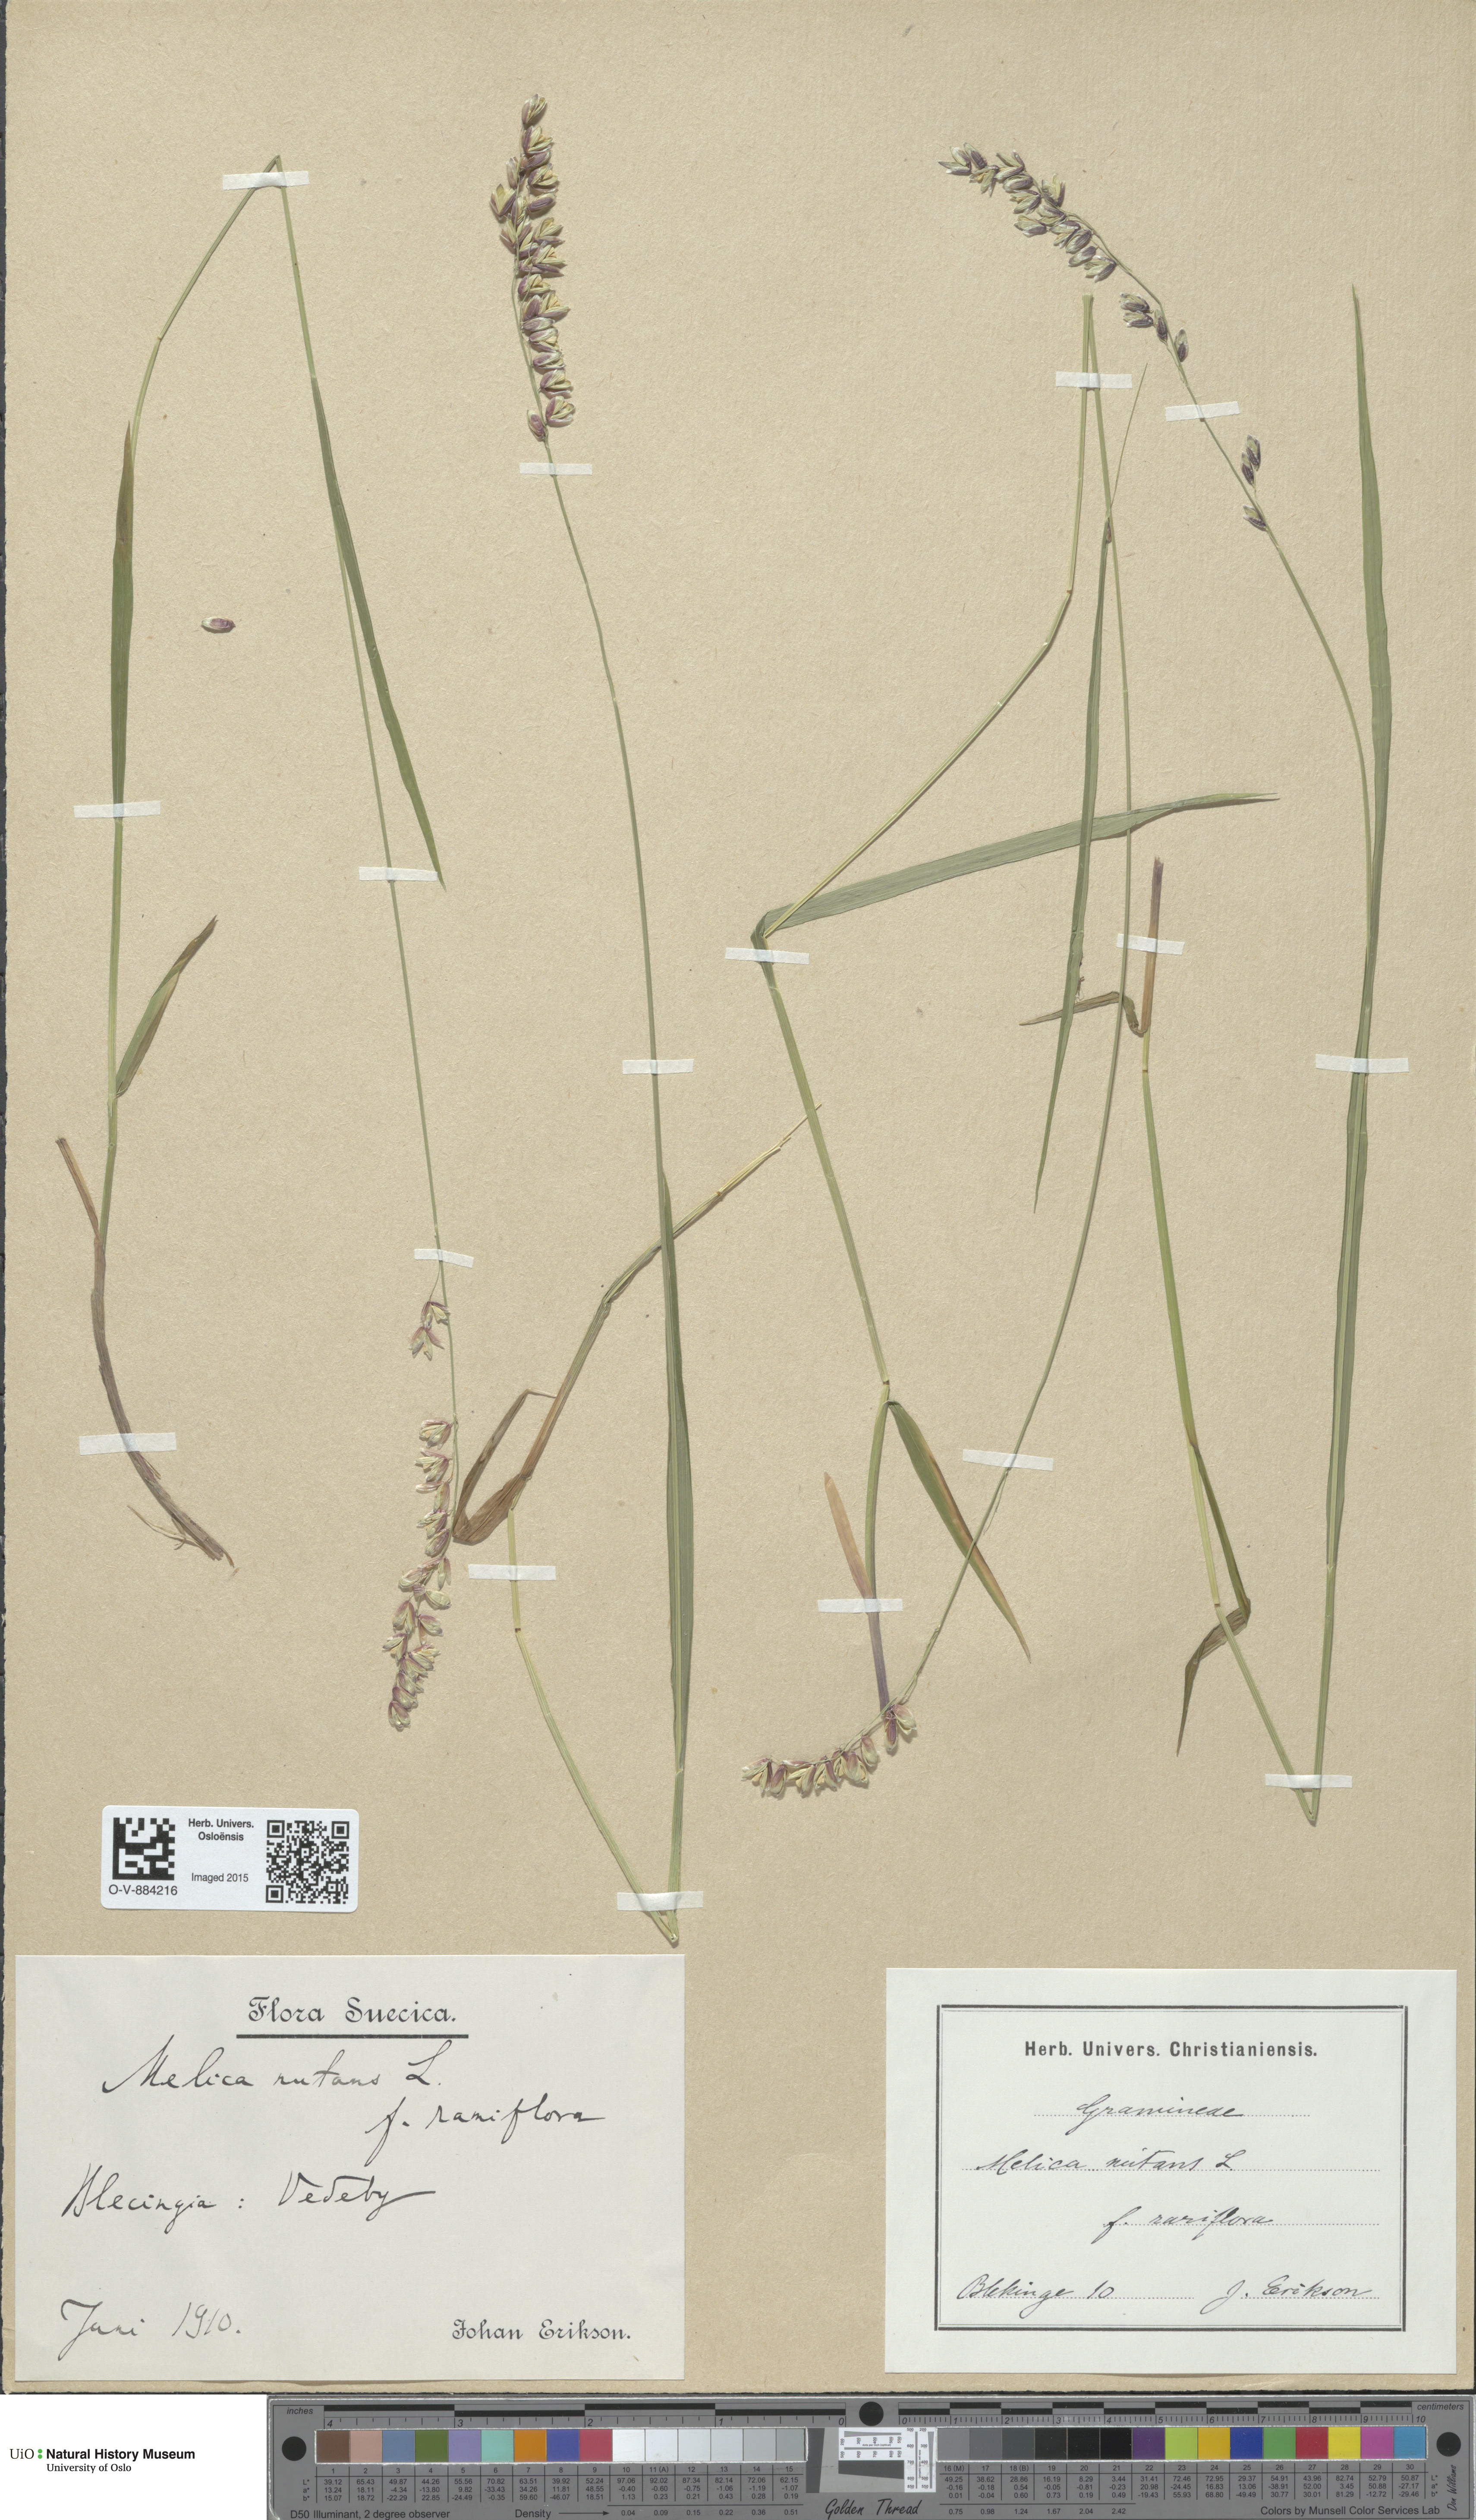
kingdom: Plantae
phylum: Tracheophyta
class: Liliopsida
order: Poales
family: Poaceae
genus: Melica
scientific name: Melica nutans
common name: Mountain melick
